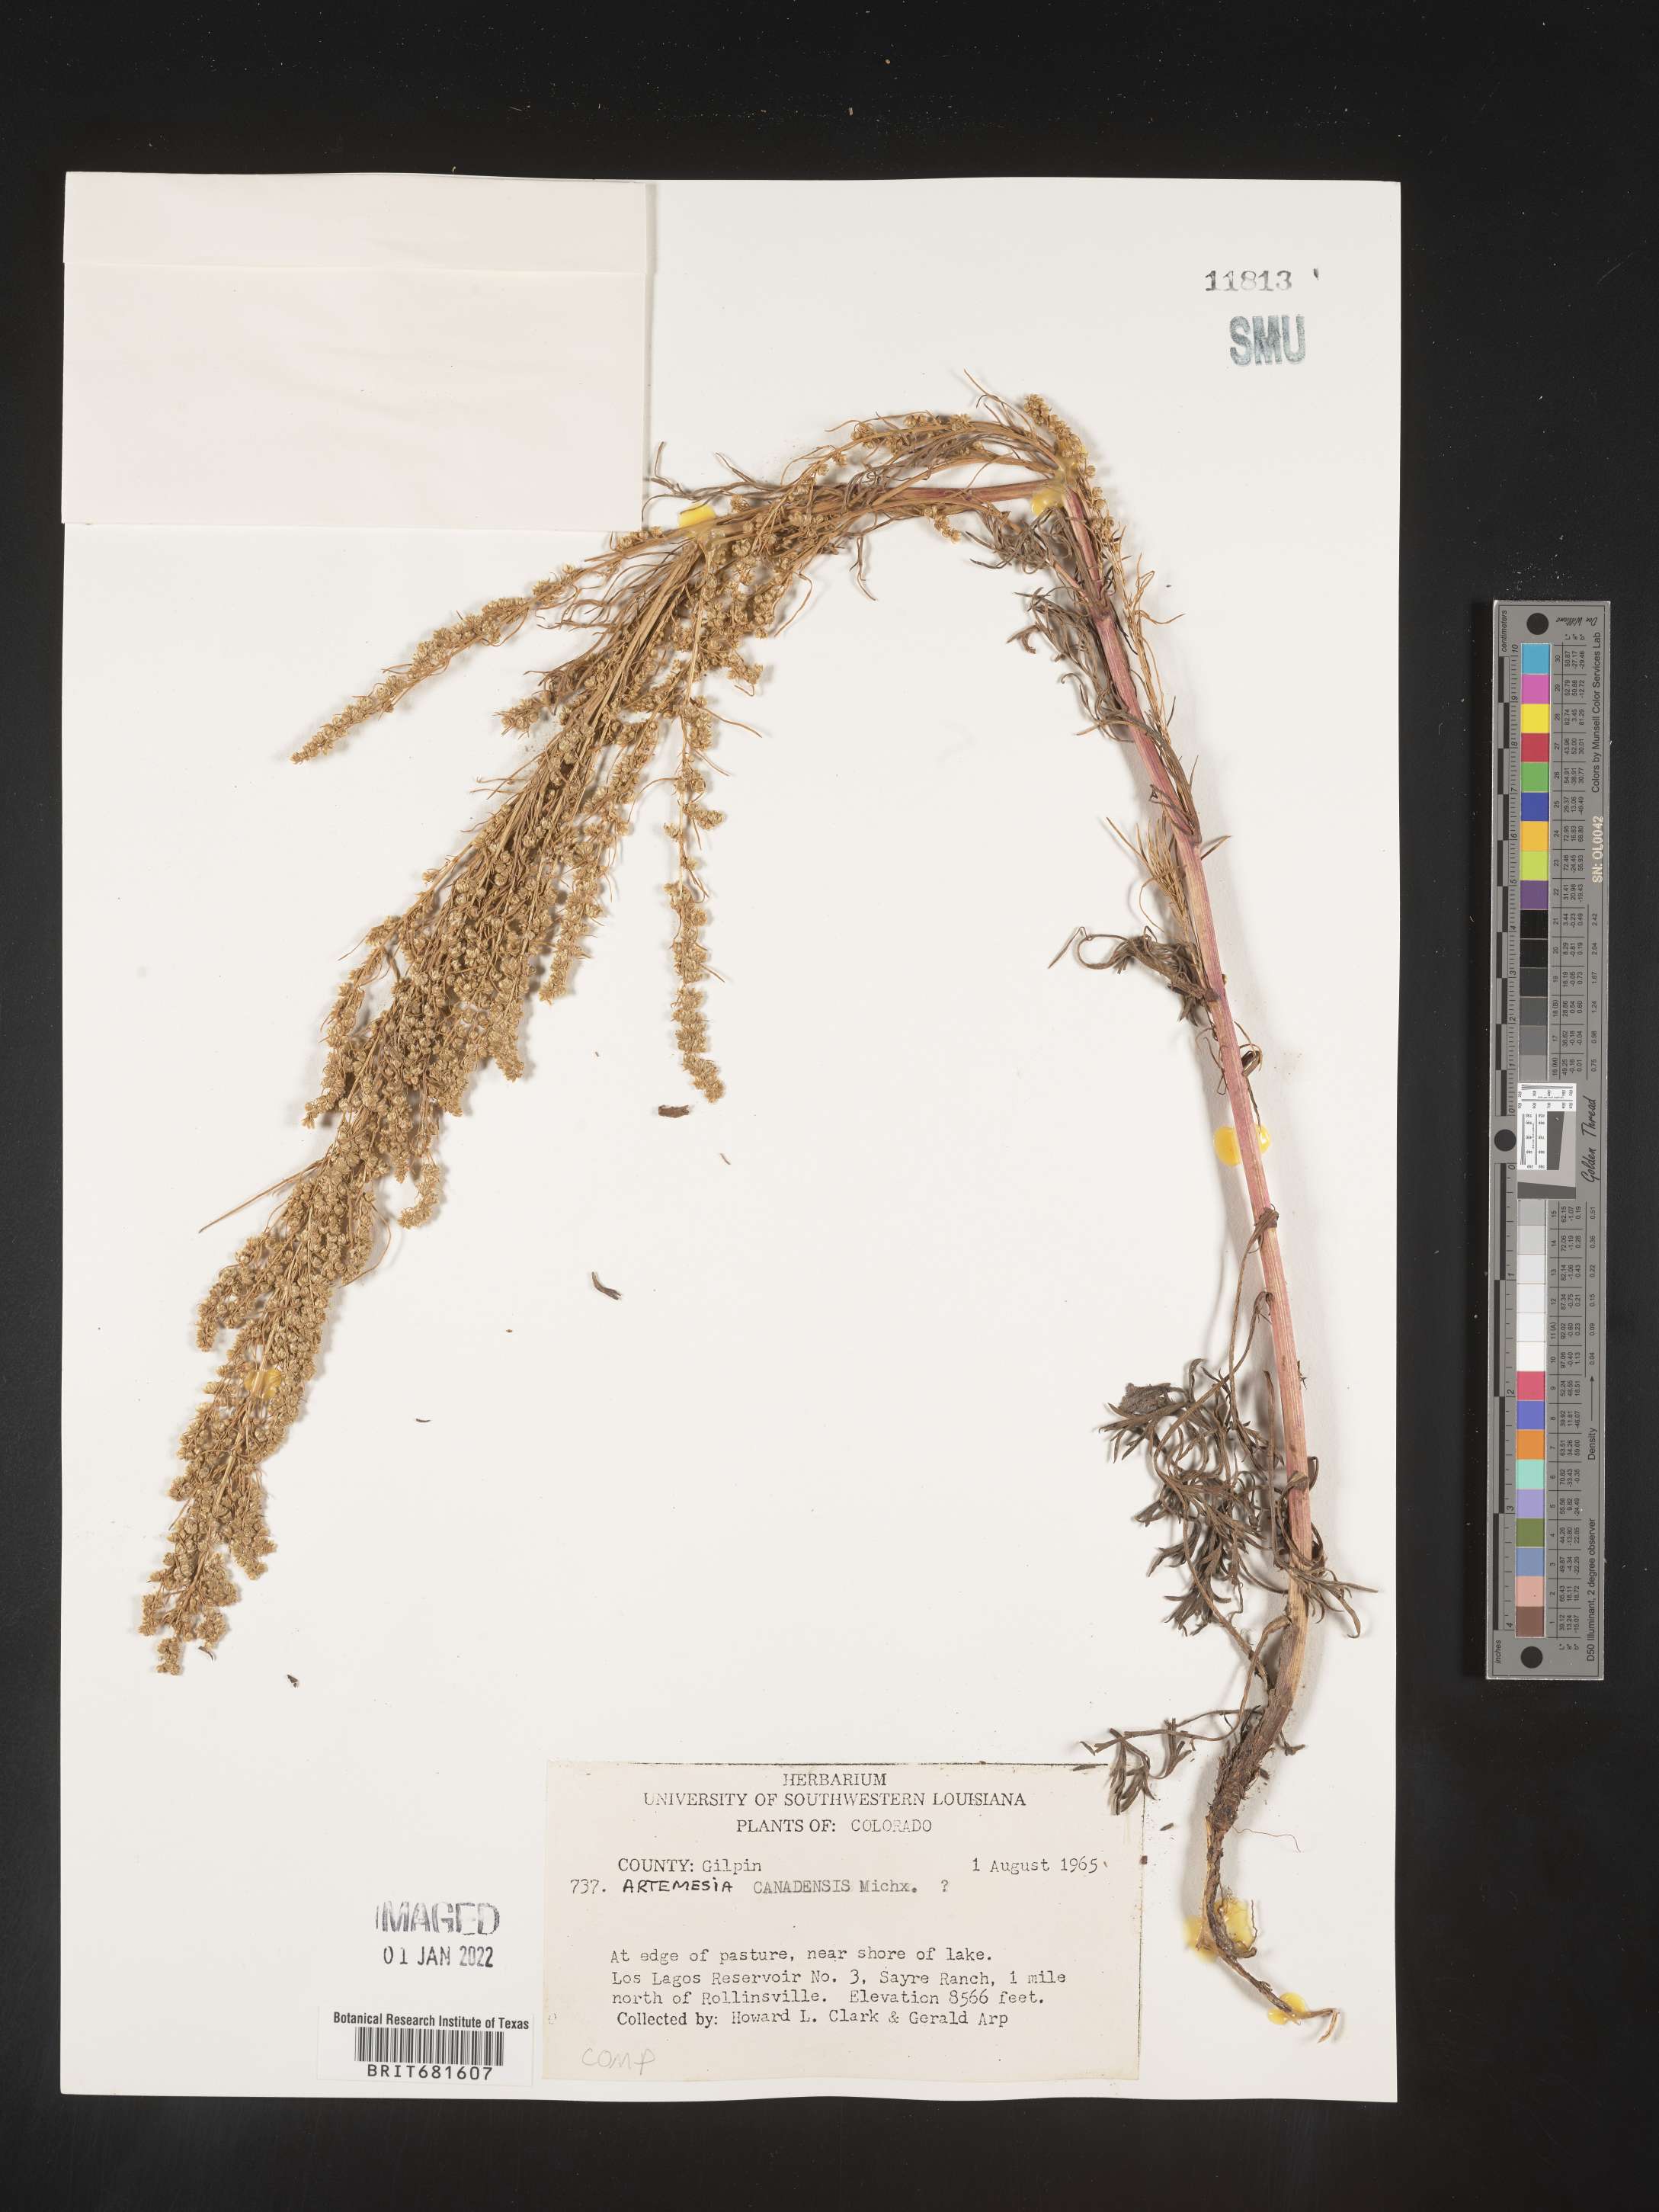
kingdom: Plantae
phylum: Tracheophyta
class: Magnoliopsida
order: Asterales
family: Asteraceae
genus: Artemisia
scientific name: Artemisia campestris
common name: Field wormwood
